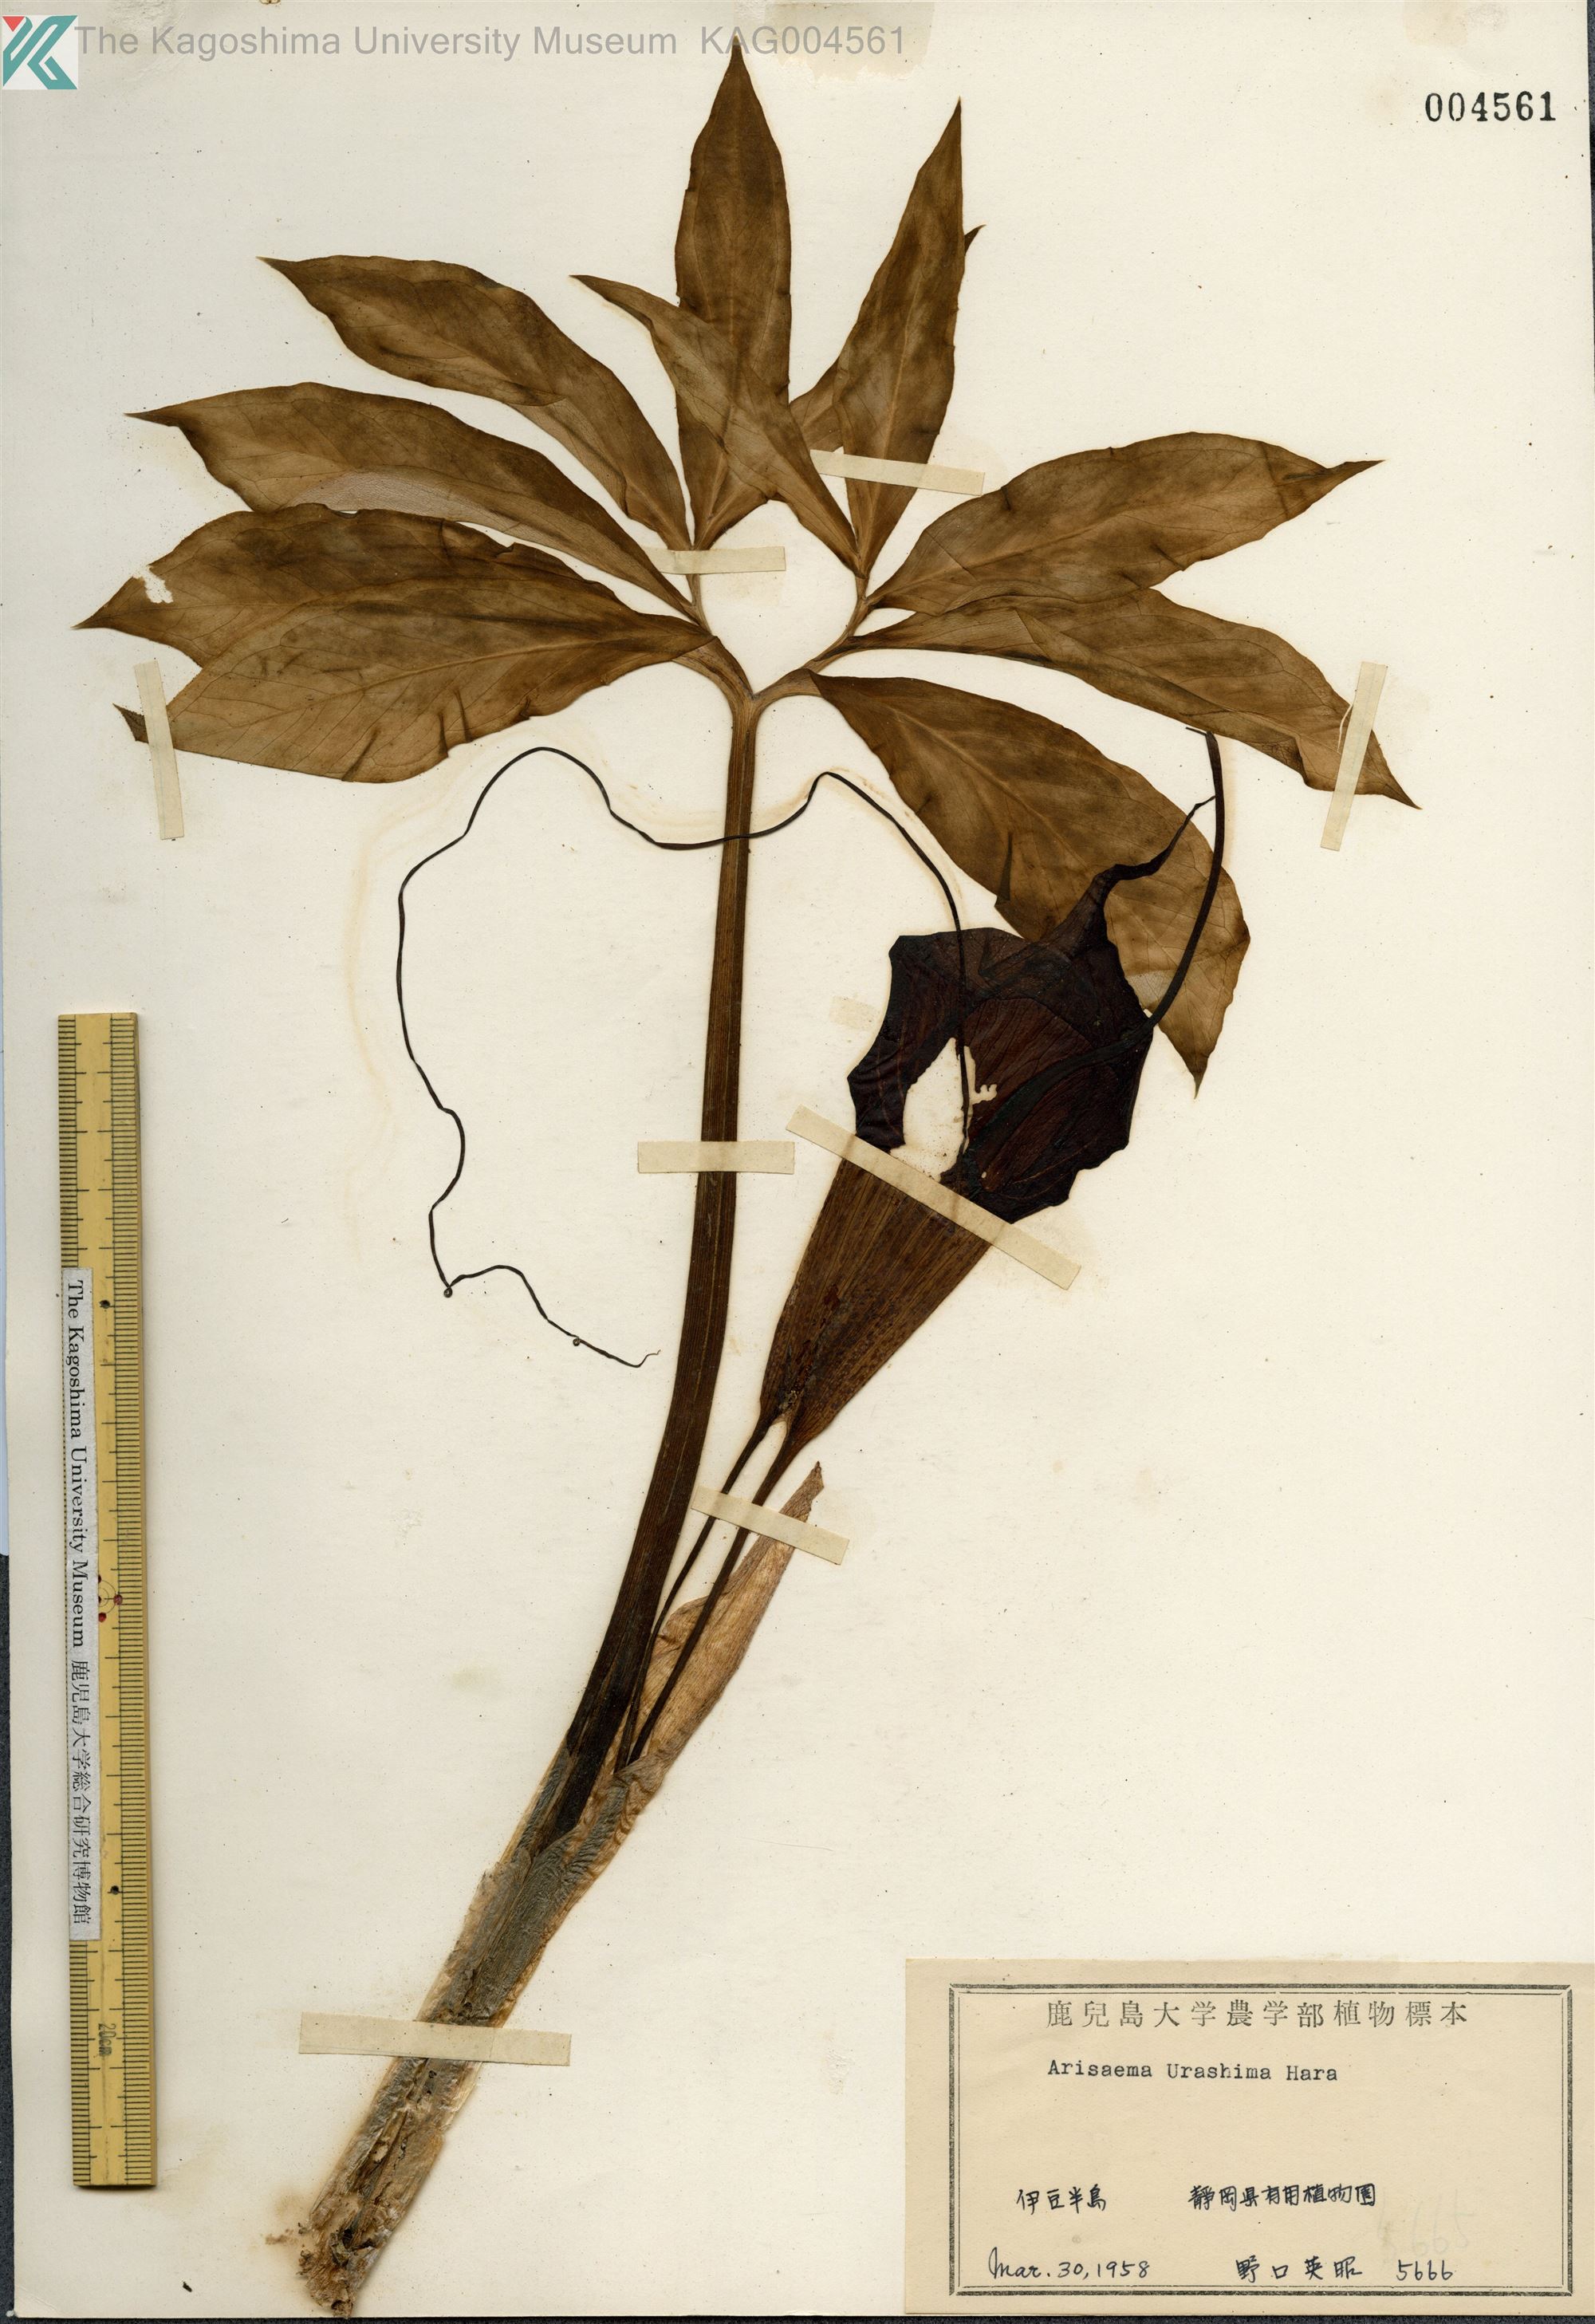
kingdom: Plantae
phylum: Tracheophyta
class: Liliopsida
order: Alismatales
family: Araceae
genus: Arisaema
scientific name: Arisaema thunbergii
